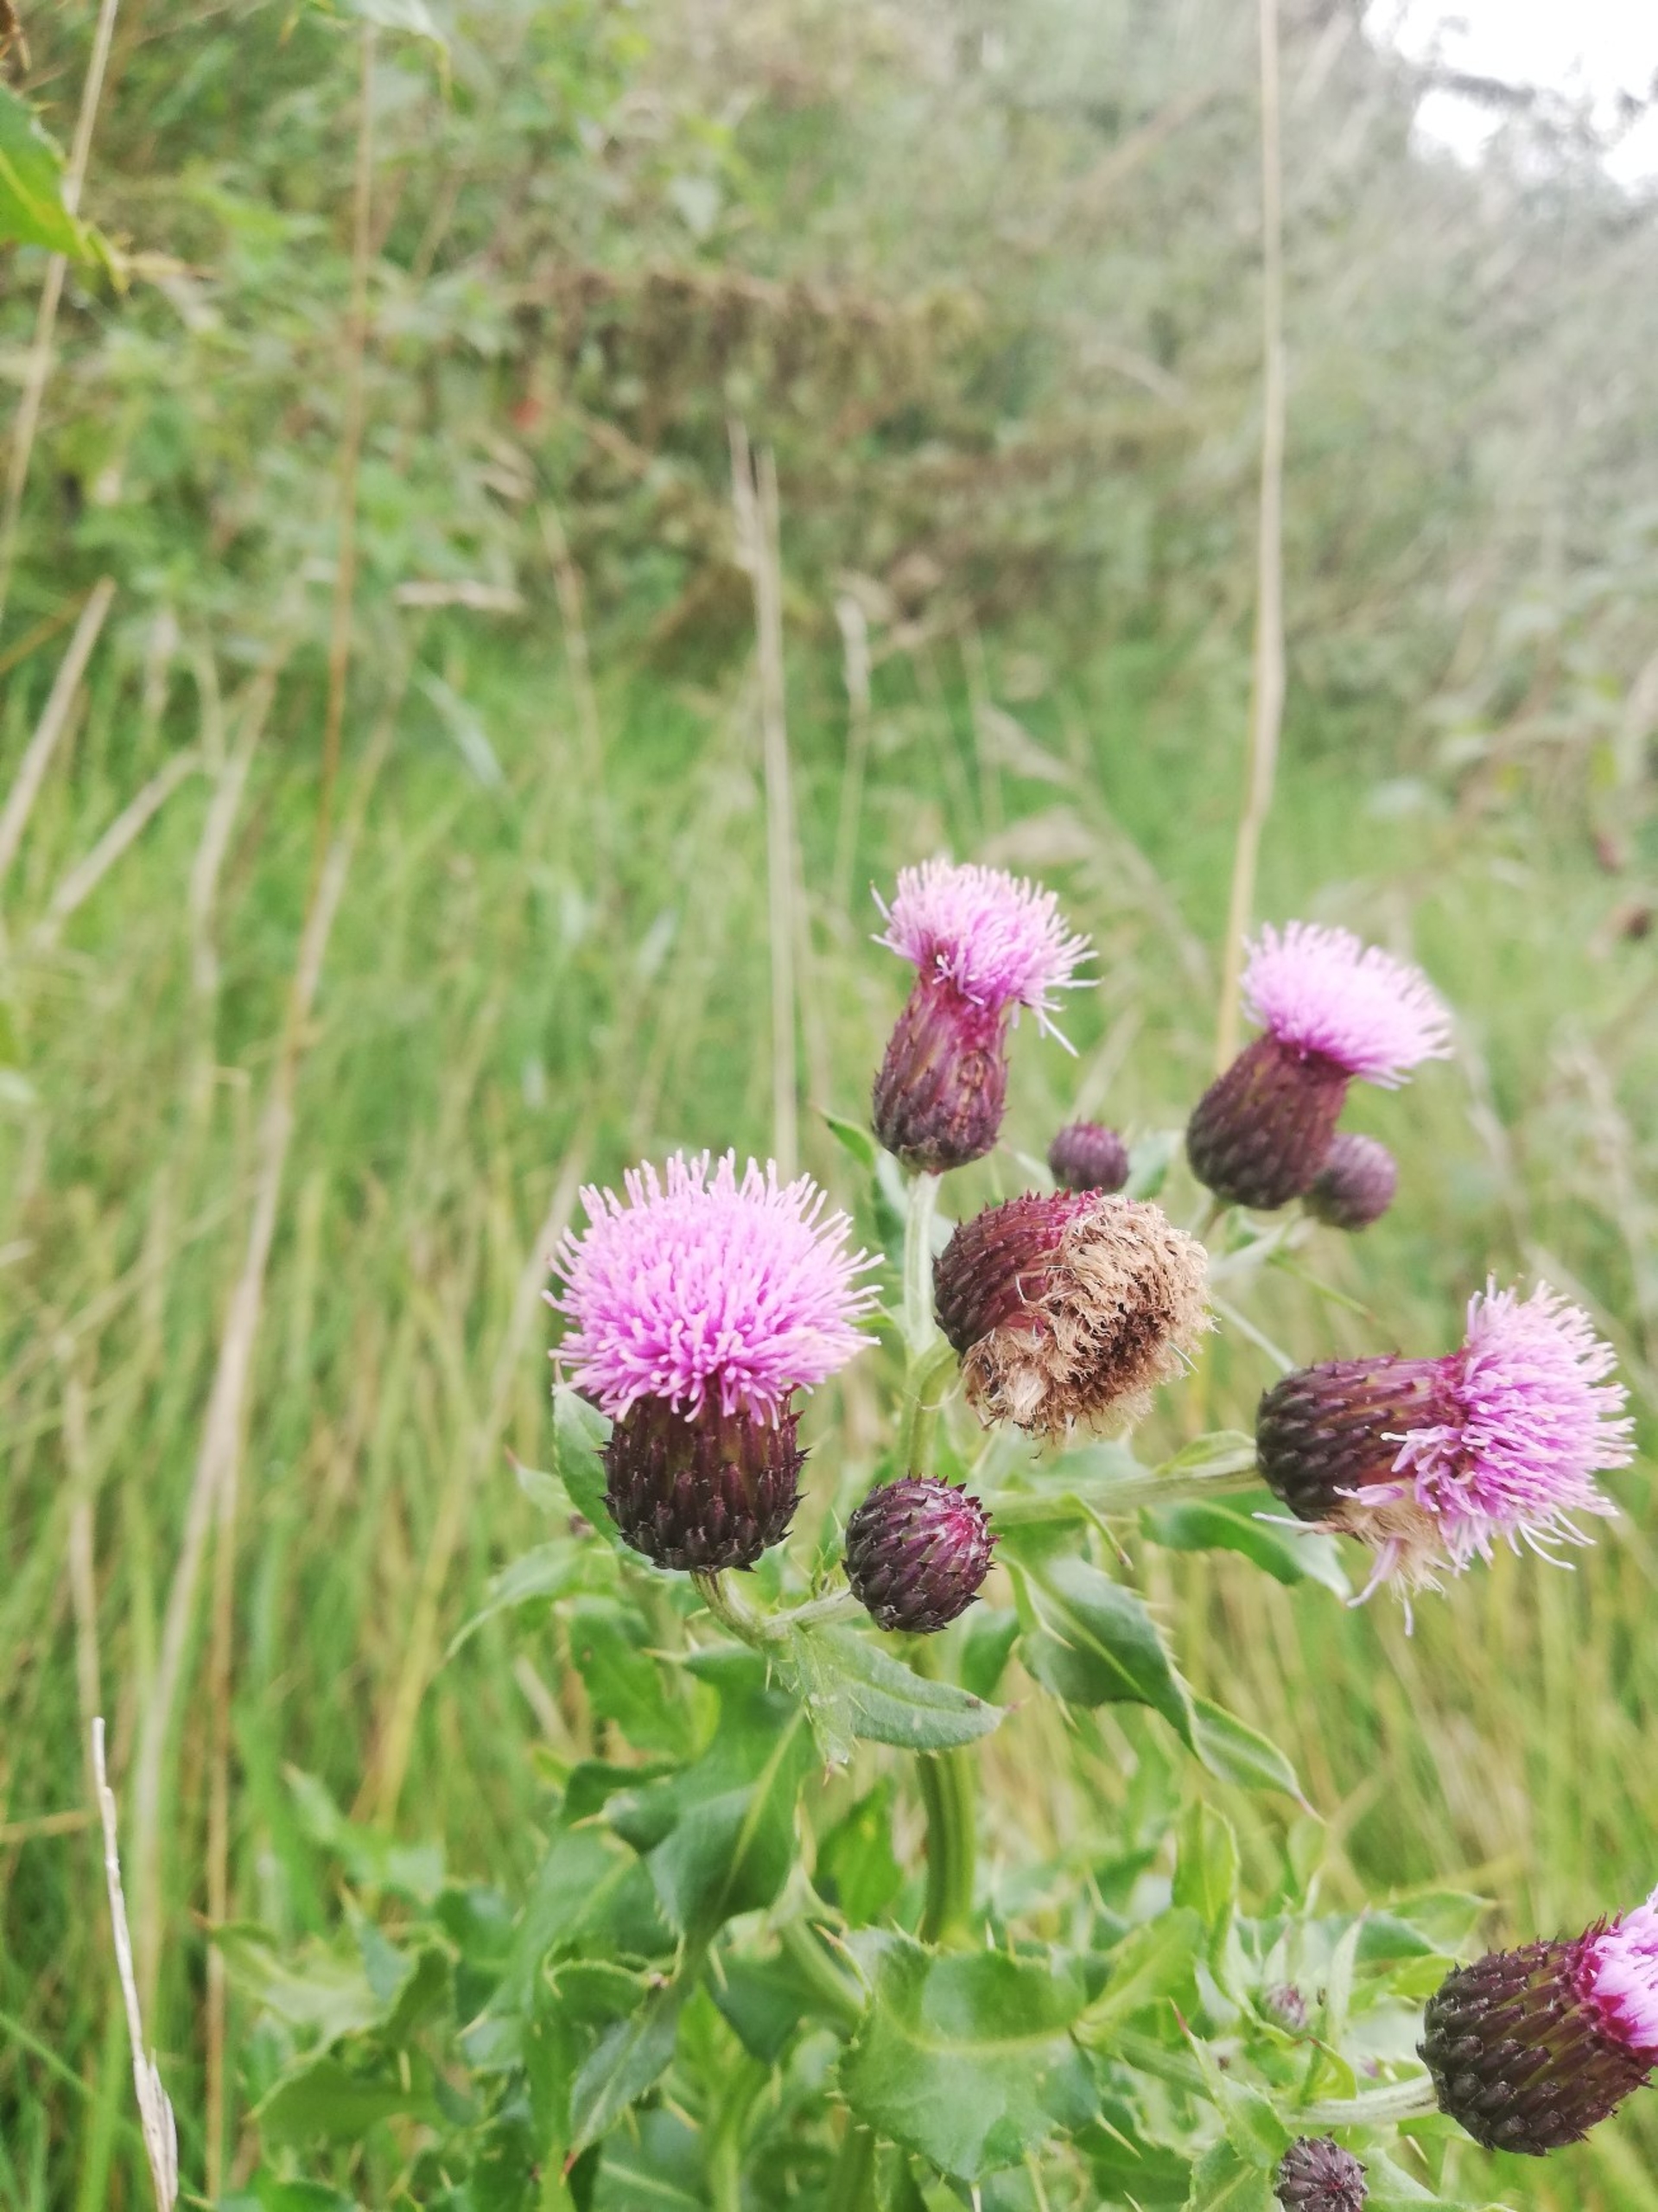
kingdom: Plantae
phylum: Tracheophyta
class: Magnoliopsida
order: Asterales
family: Asteraceae
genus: Cirsium
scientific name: Cirsium arvense
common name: Ager-tidsel
